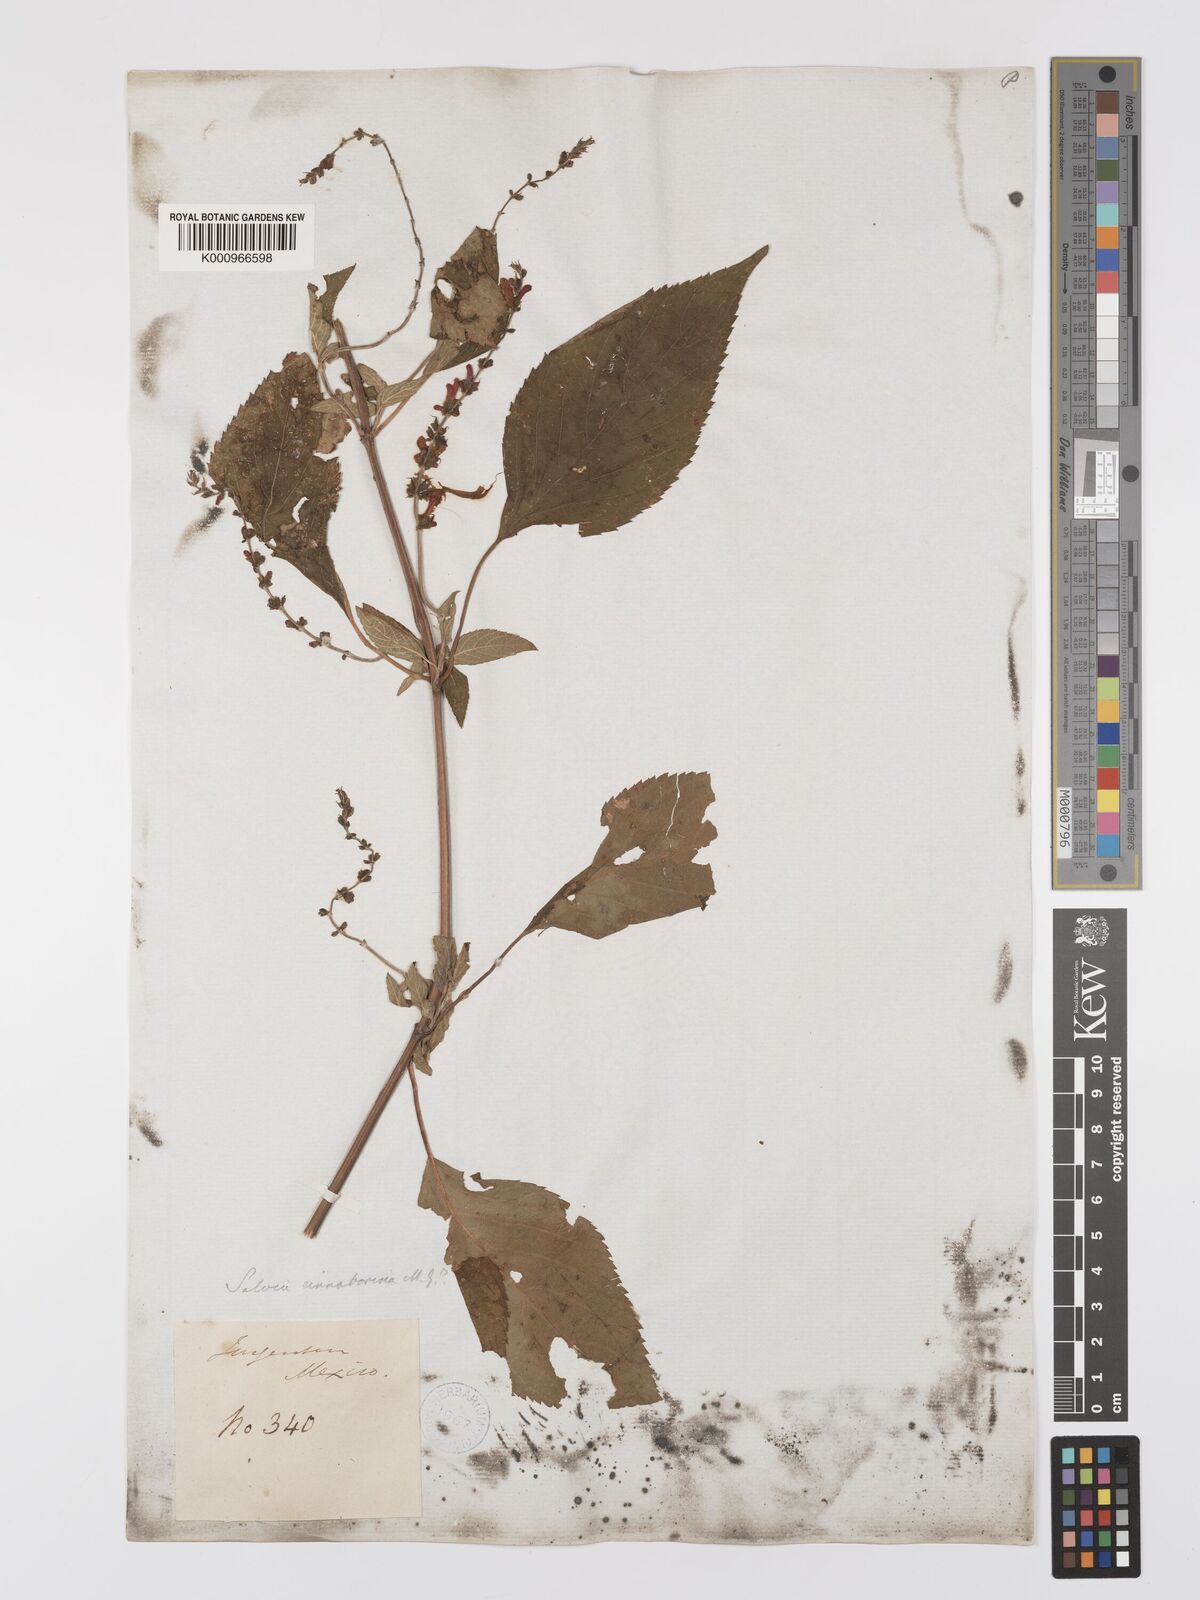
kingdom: Plantae
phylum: Tracheophyta
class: Magnoliopsida
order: Lamiales
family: Lamiaceae
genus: Salvia
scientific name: Salvia cinnabarina
